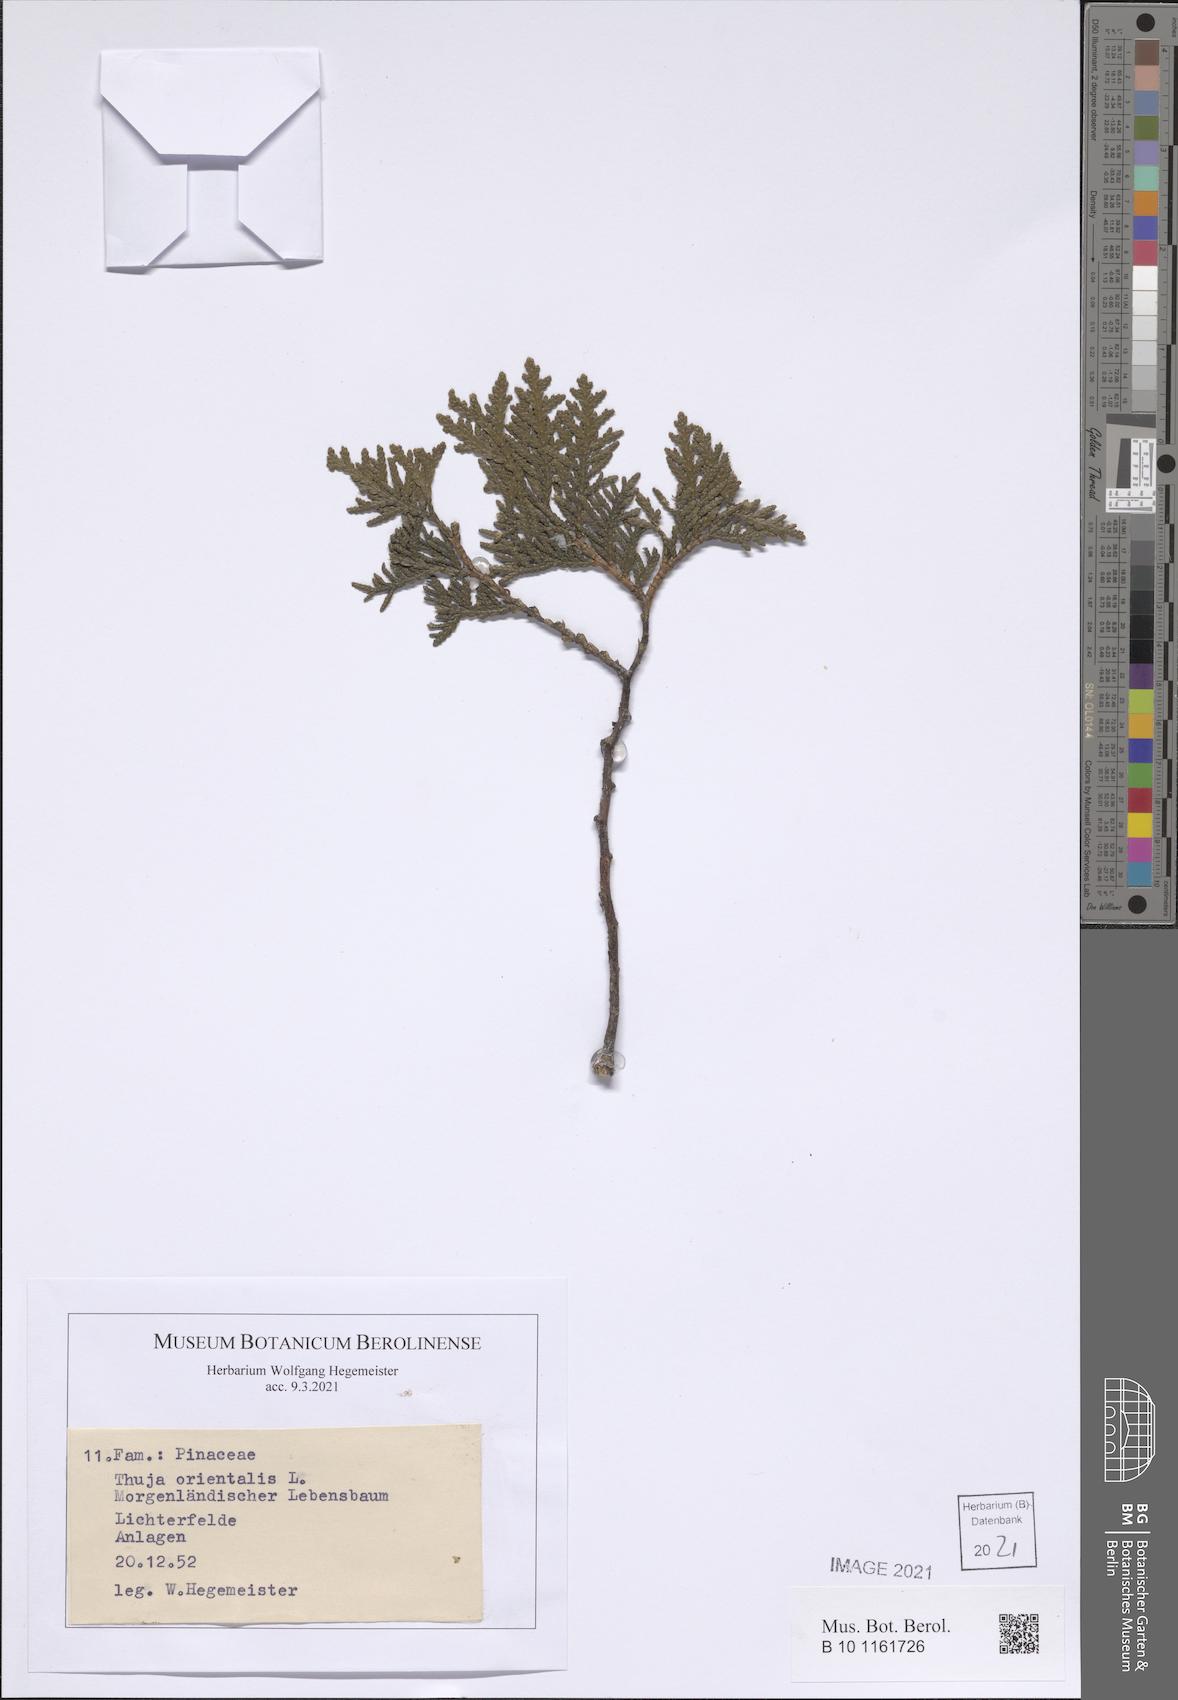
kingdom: Plantae
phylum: Tracheophyta
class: Pinopsida
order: Pinales
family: Cupressaceae
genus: Platycladus
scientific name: Platycladus orientalis
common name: Chinese thuja
